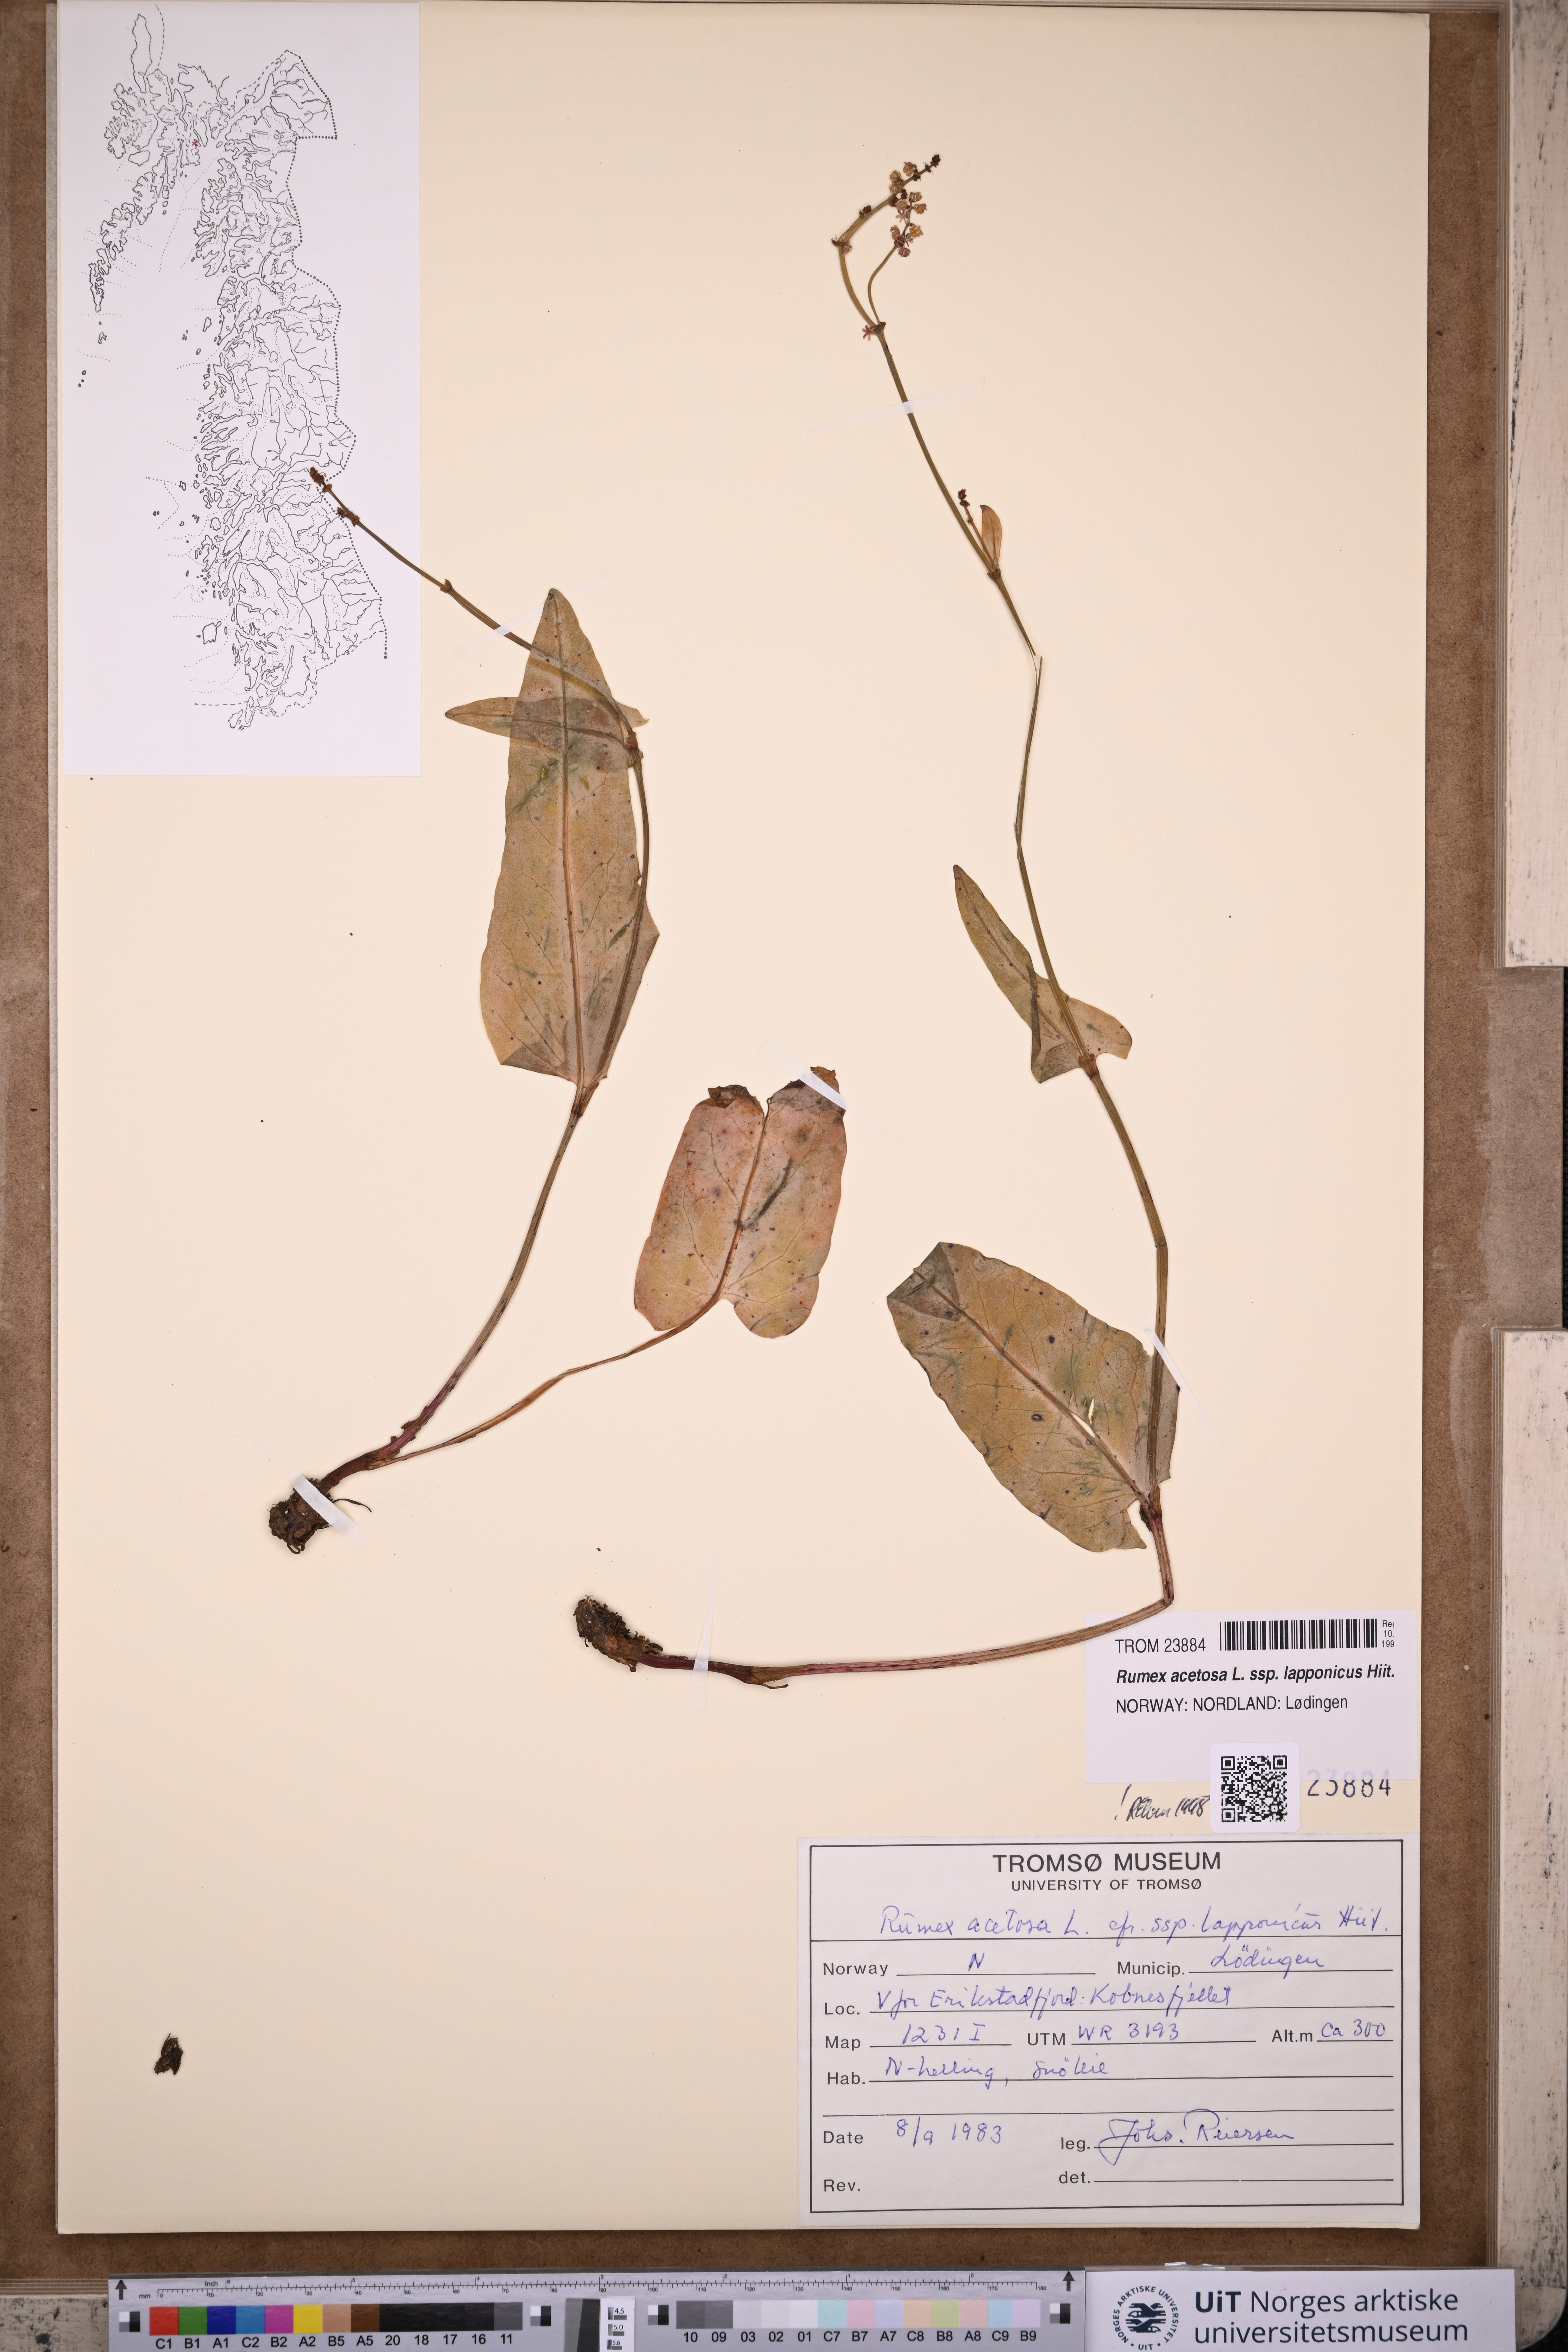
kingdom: Plantae
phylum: Tracheophyta
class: Magnoliopsida
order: Caryophyllales
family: Polygonaceae
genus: Rumex
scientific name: Rumex lapponicus
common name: Lapland mountain sorrel
